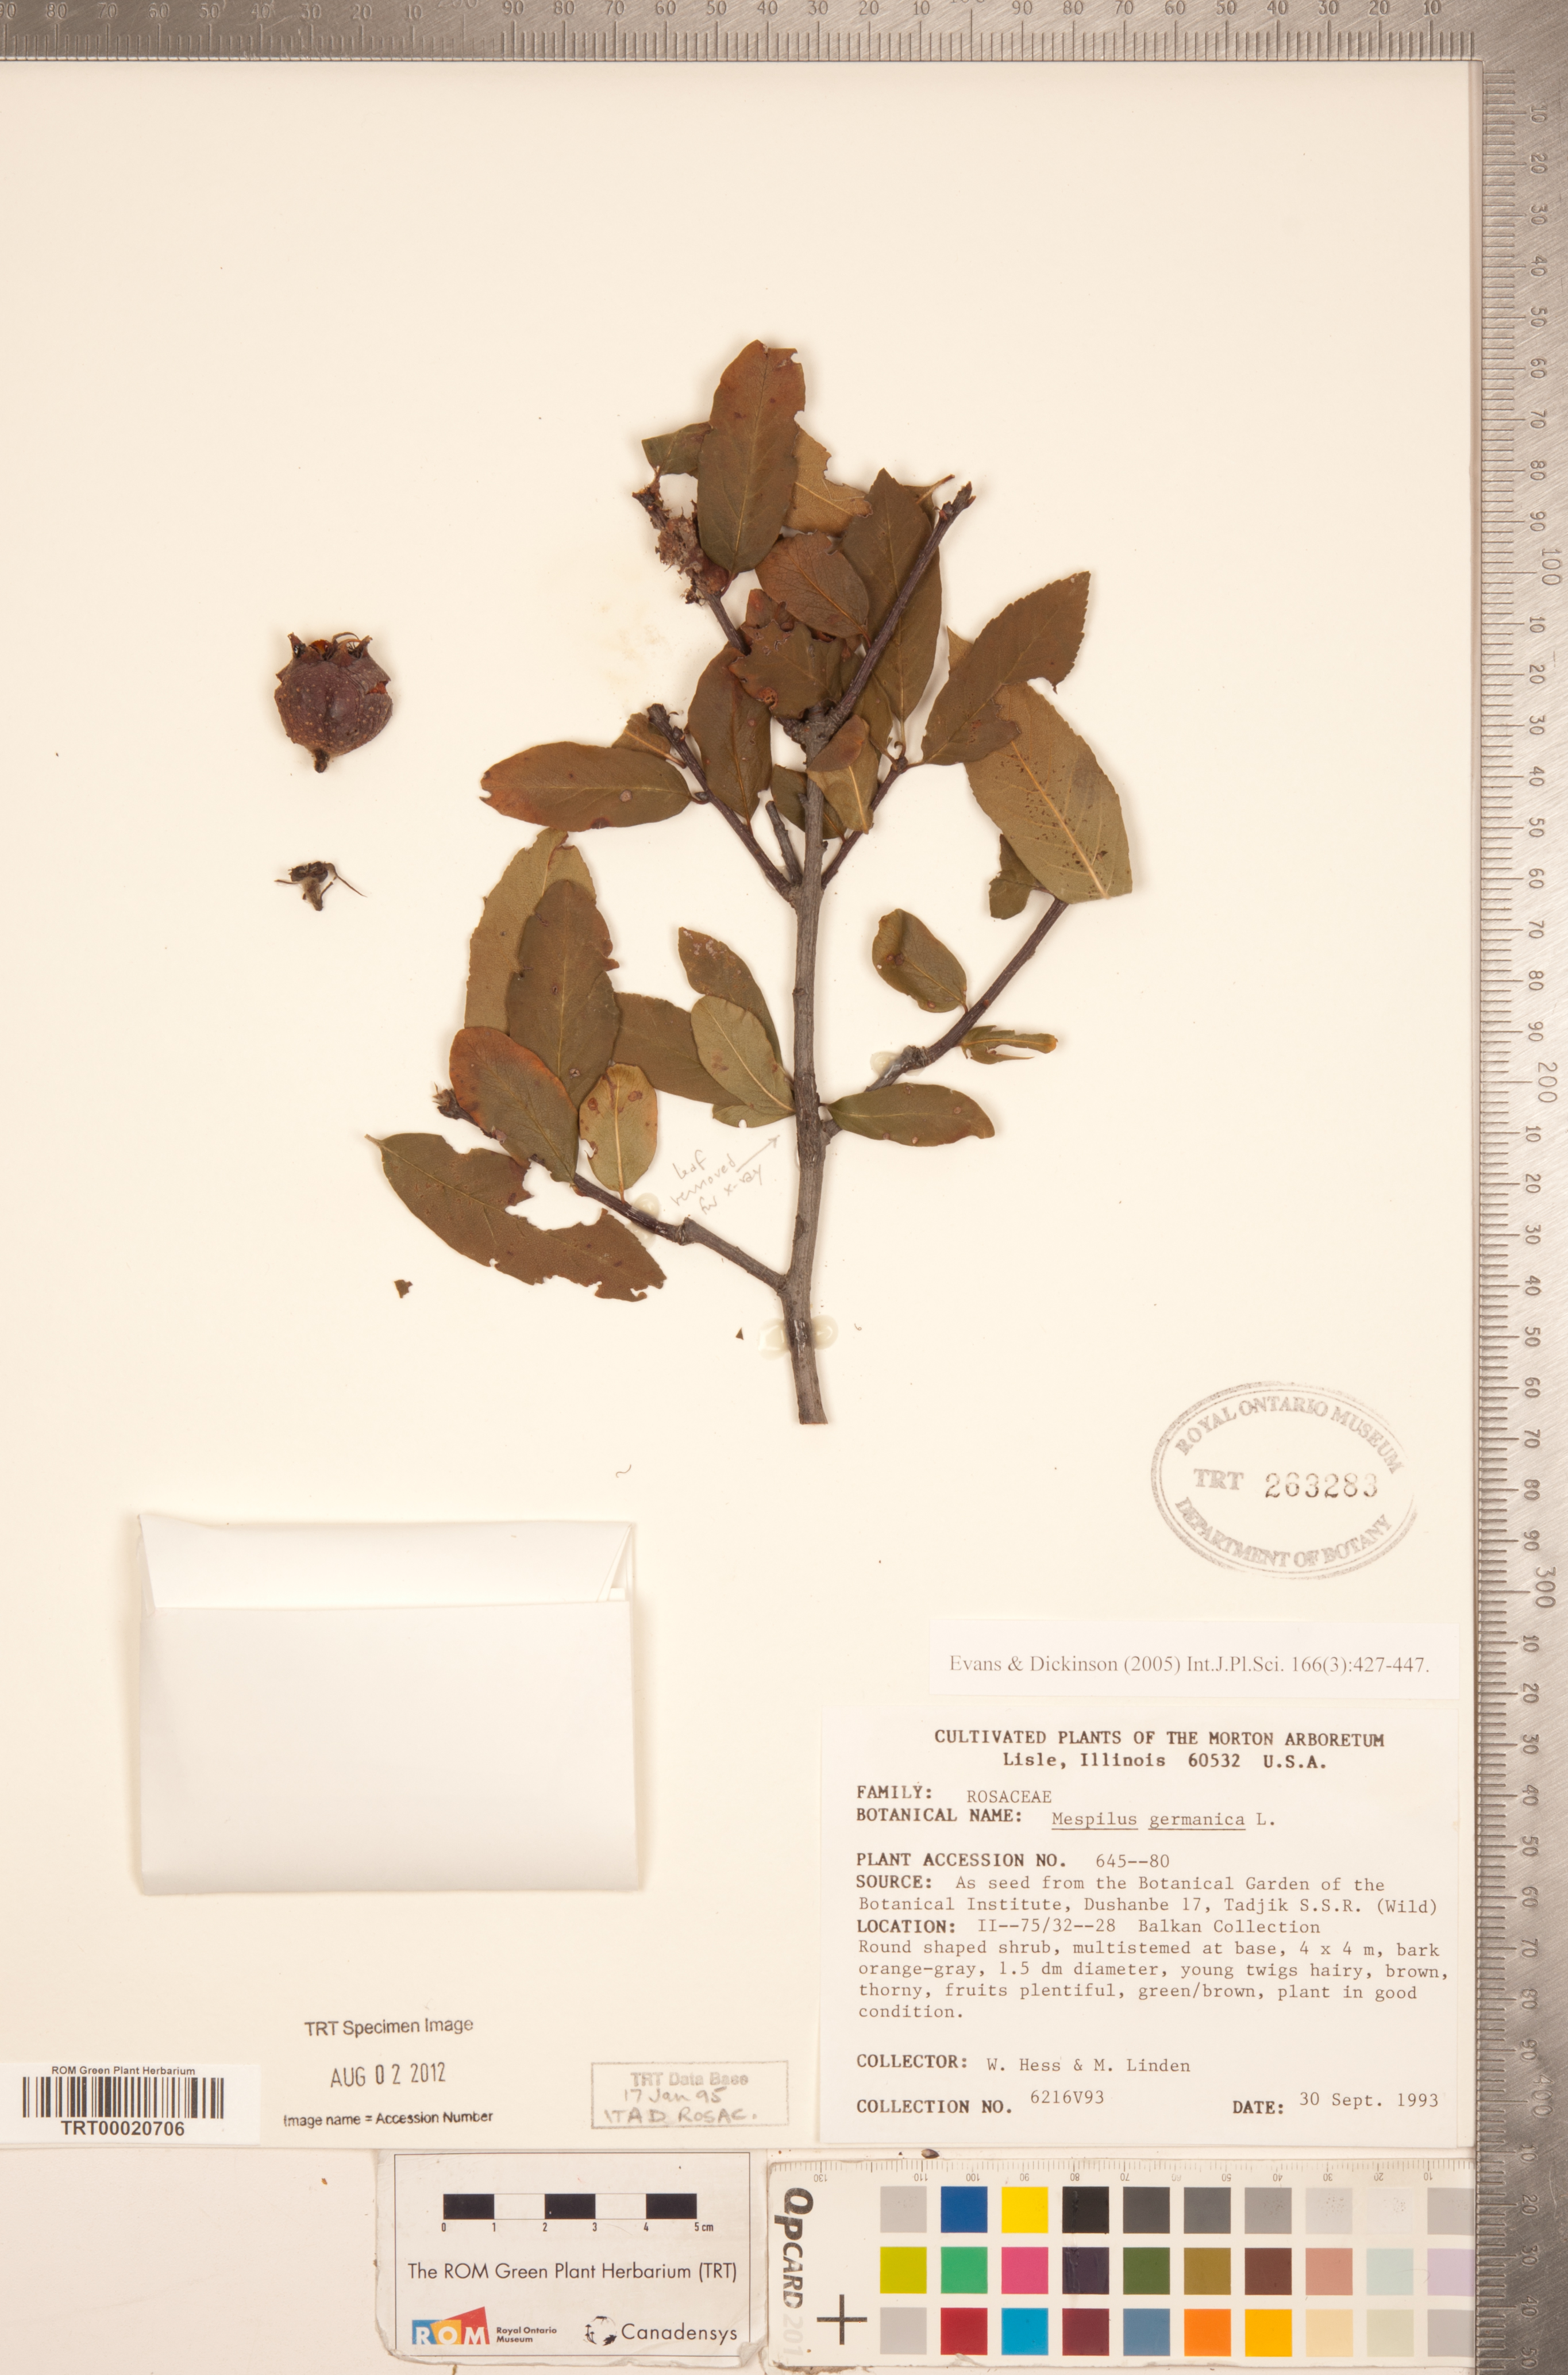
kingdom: Plantae
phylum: Tracheophyta
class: Magnoliopsida
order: Rosales
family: Rosaceae
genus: Mespilus
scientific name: Mespilus germanica
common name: Medlar
